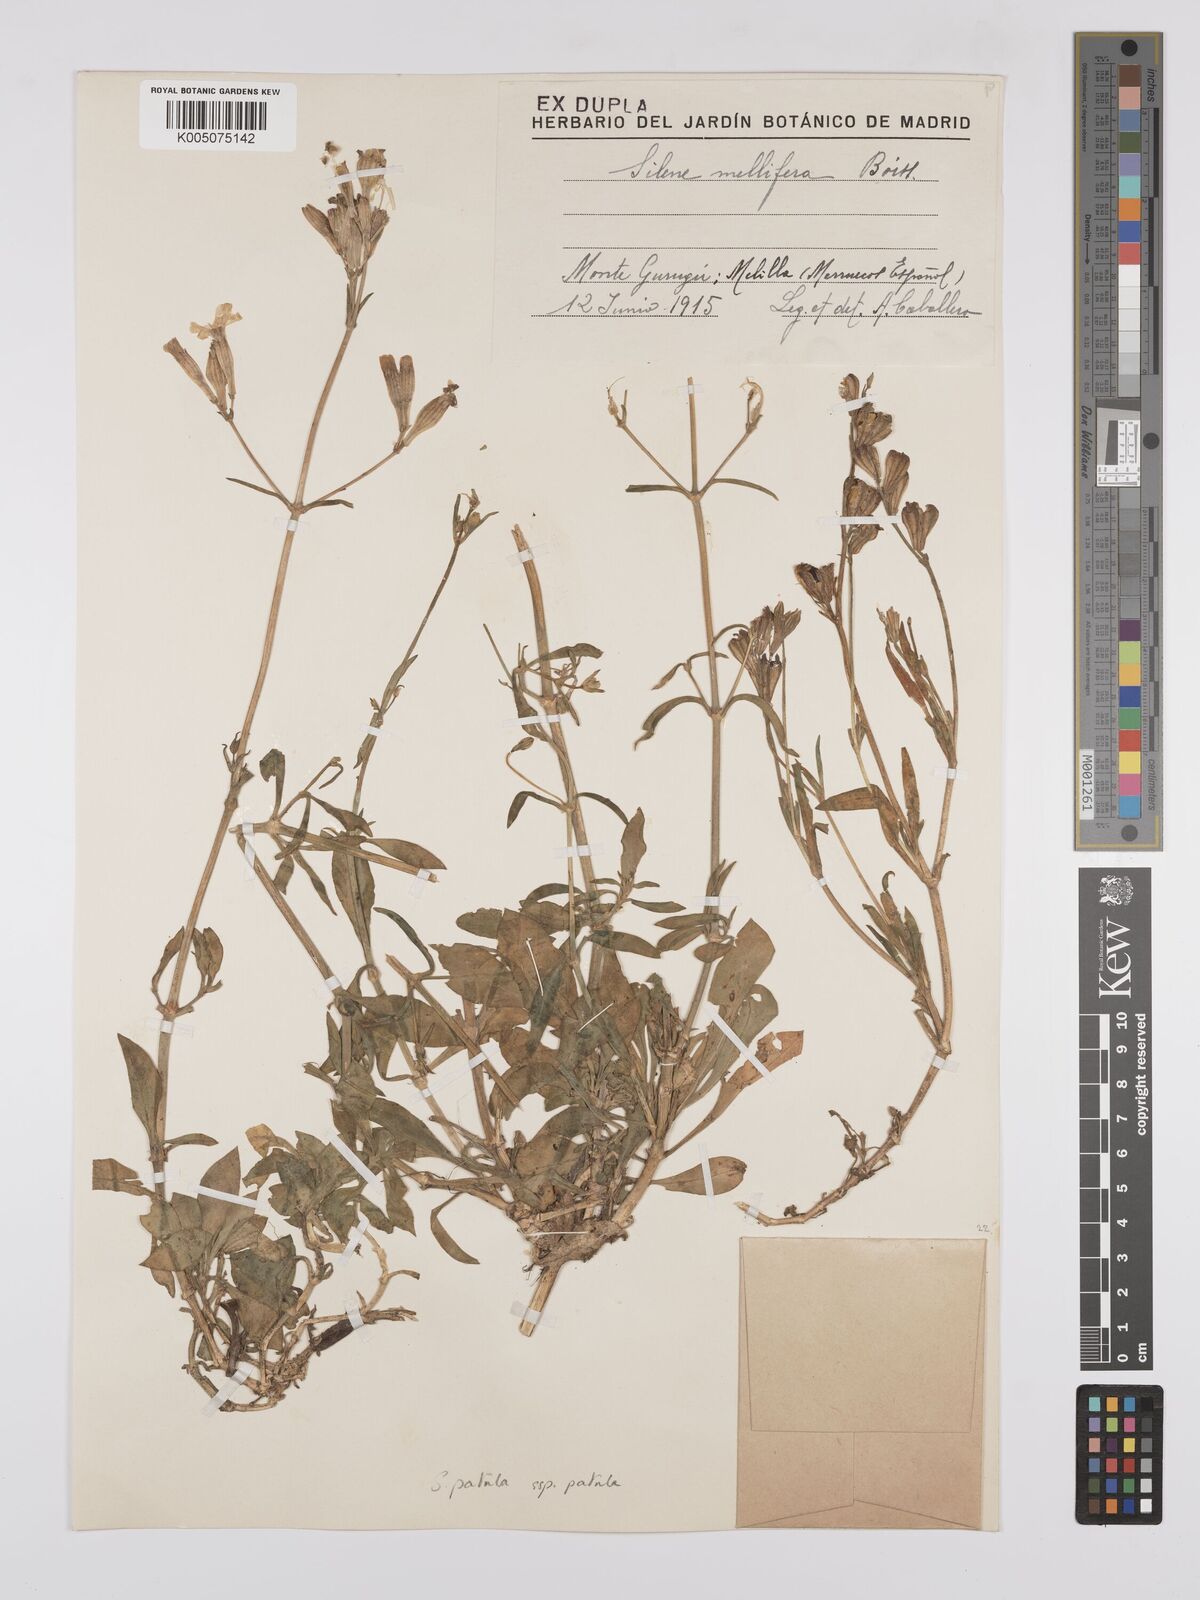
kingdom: Plantae
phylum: Tracheophyta
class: Magnoliopsida
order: Caryophyllales
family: Caryophyllaceae
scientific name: Caryophyllaceae
